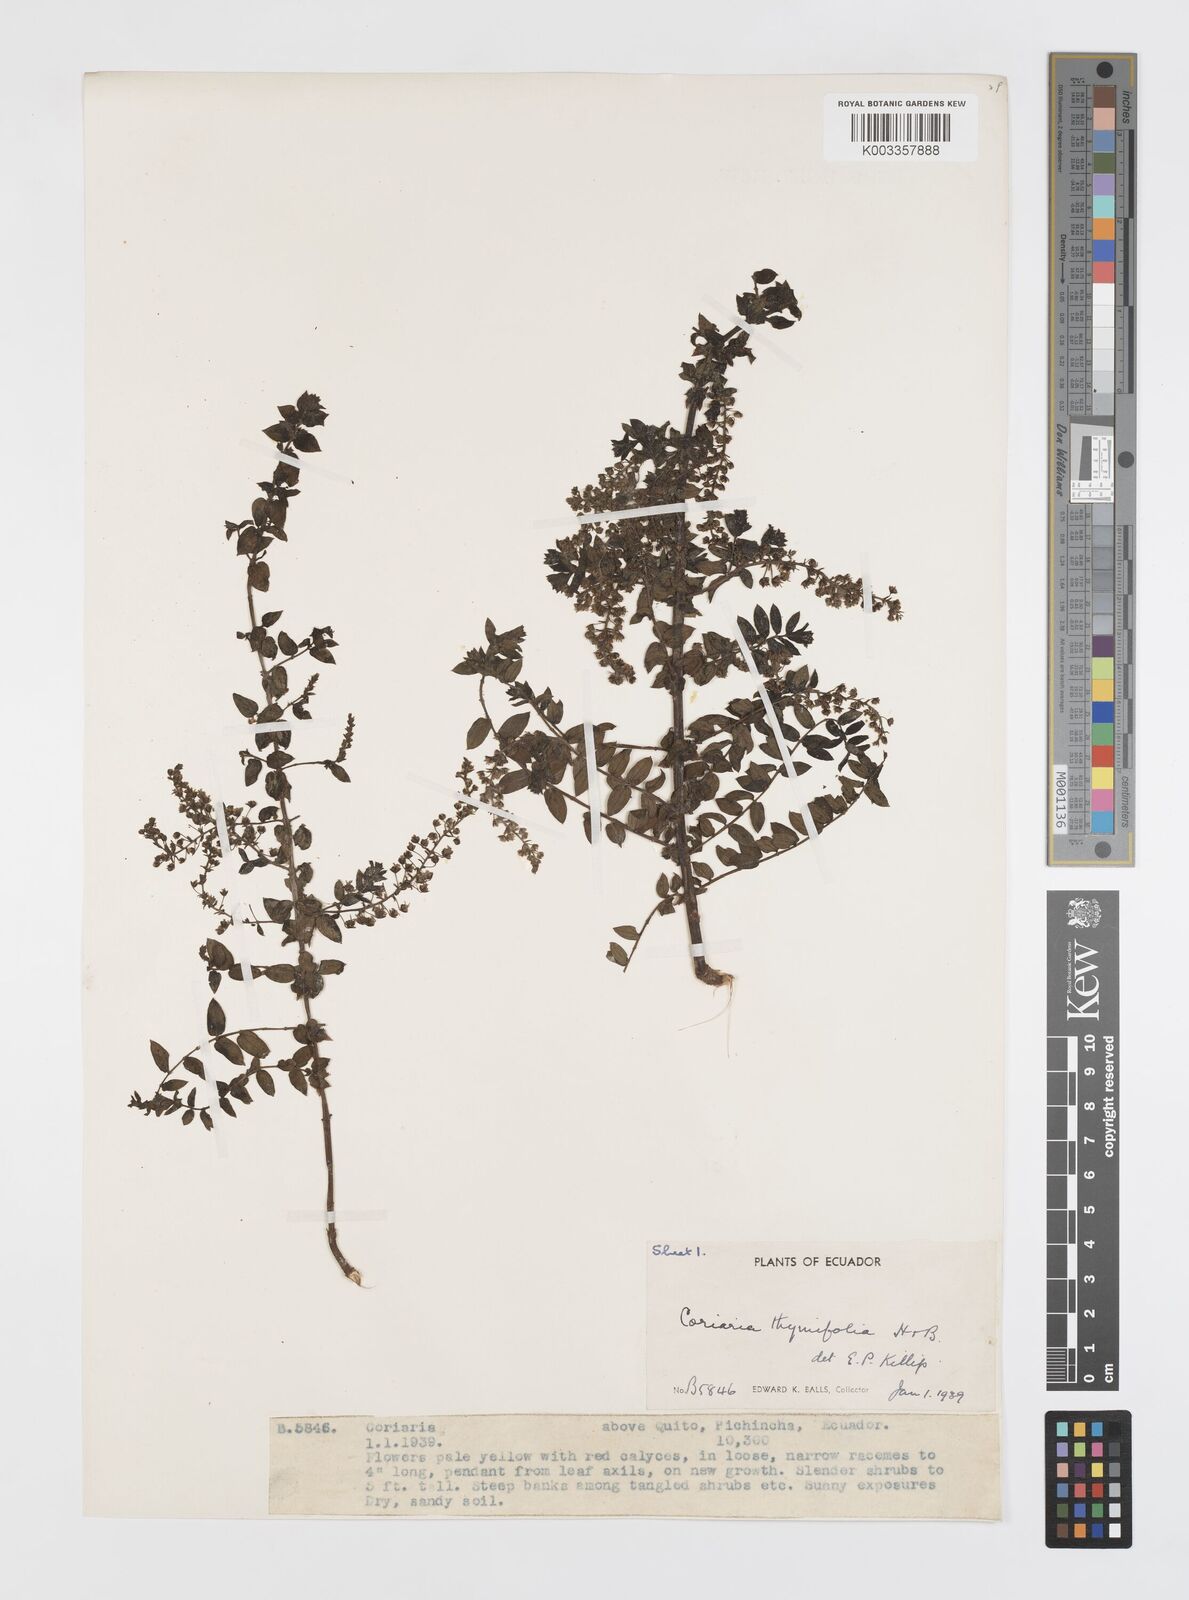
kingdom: Plantae
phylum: Tracheophyta
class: Magnoliopsida
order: Cucurbitales
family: Coriariaceae
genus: Coriaria
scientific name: Coriaria microphylla
